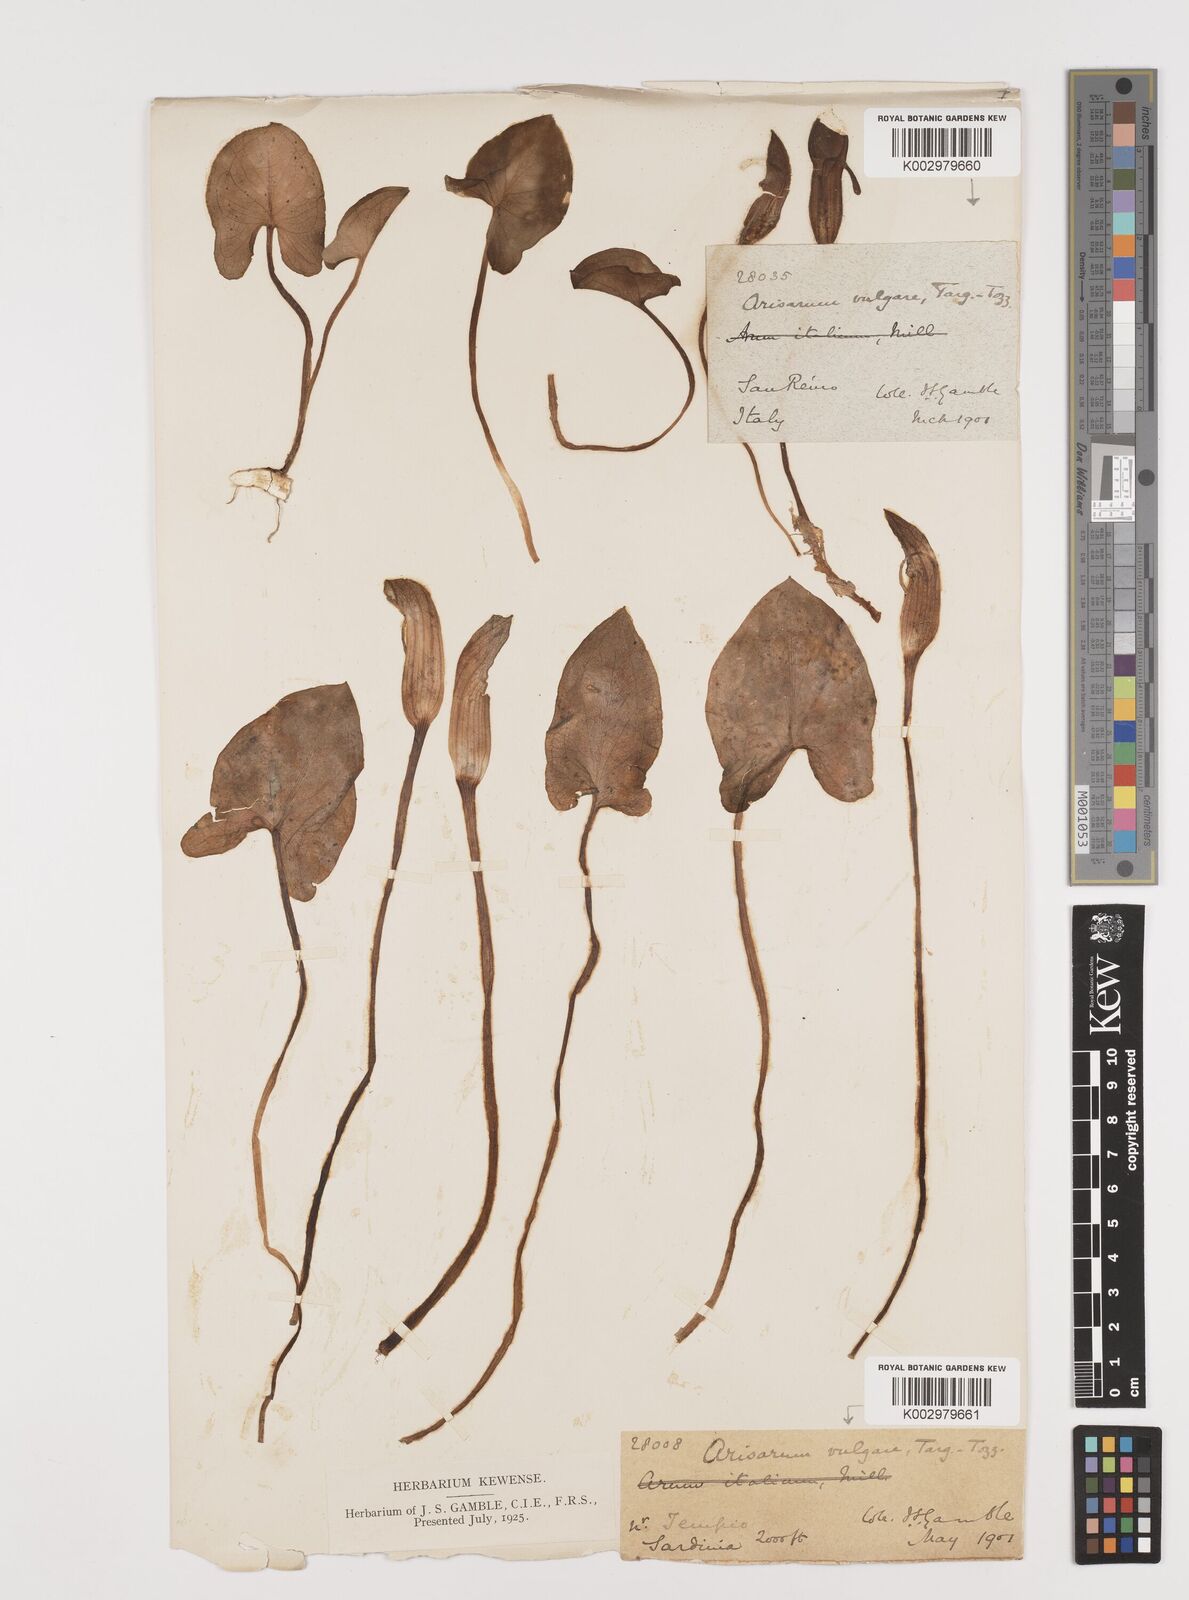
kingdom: Plantae
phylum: Tracheophyta
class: Liliopsida
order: Alismatales
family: Araceae
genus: Arisarum
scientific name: Arisarum vulgare
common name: Common arisarum
